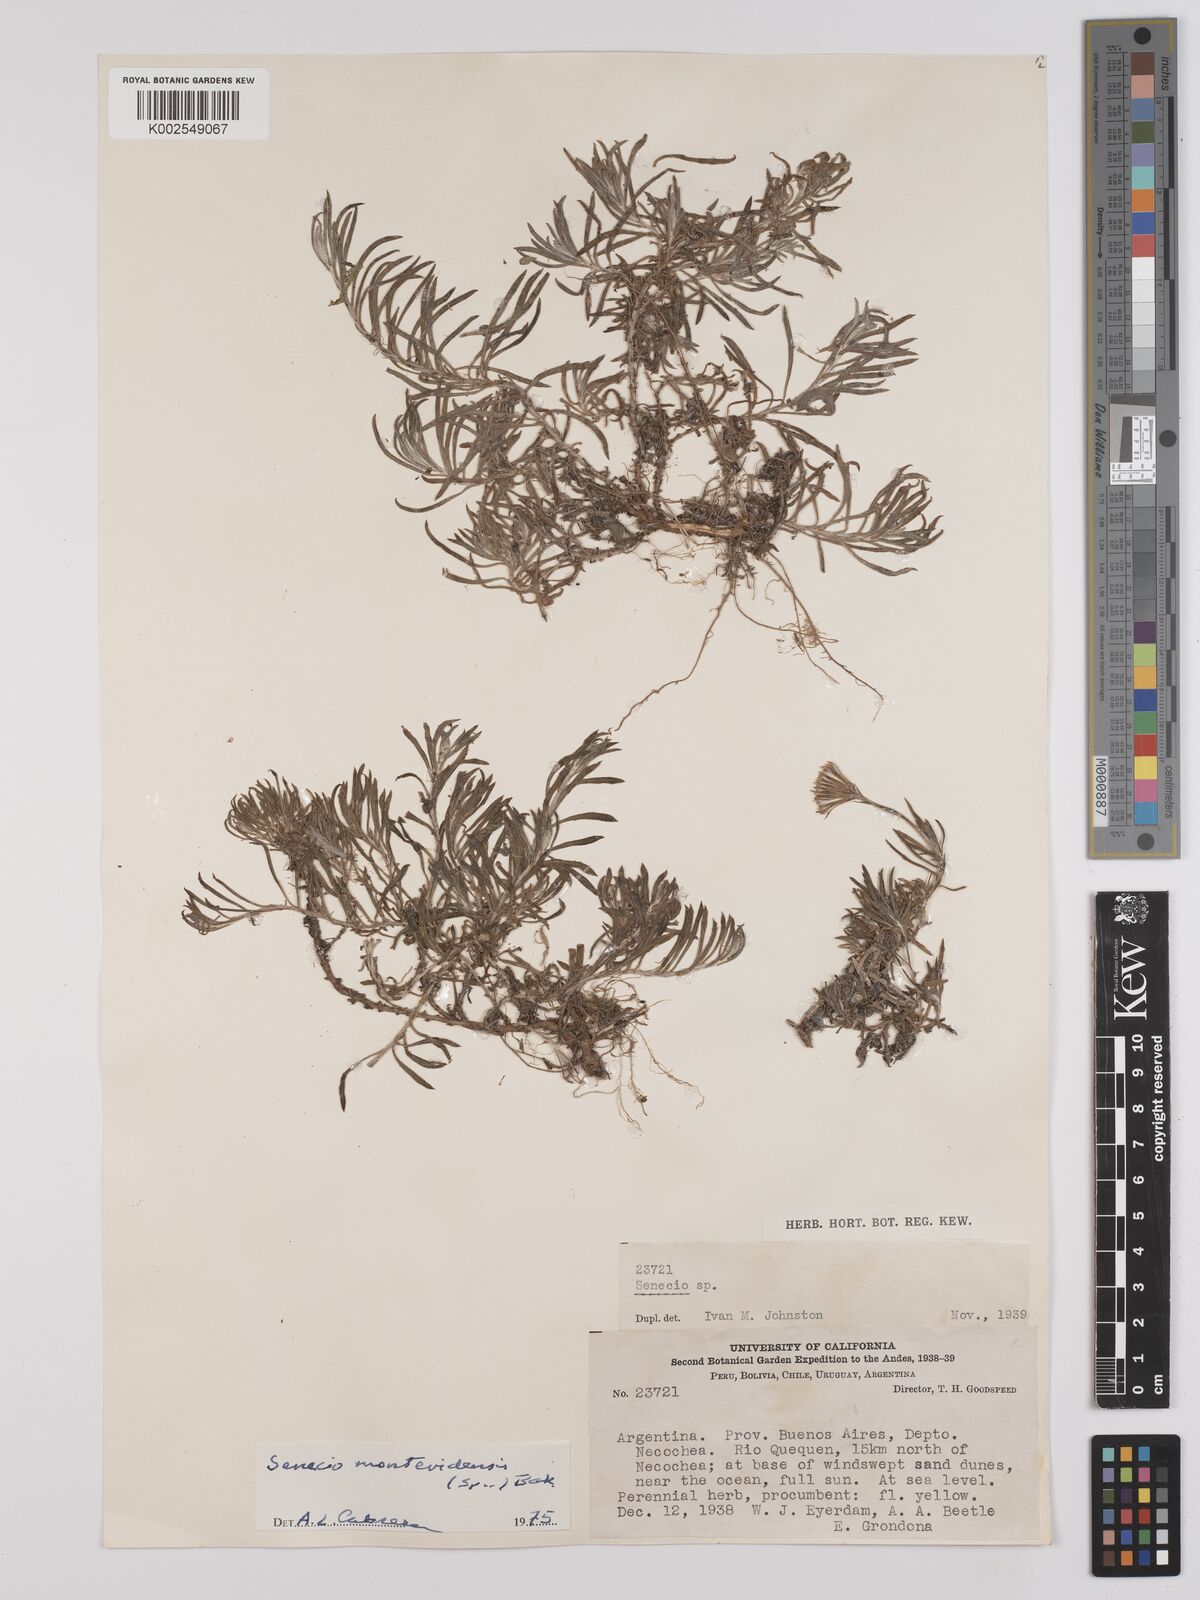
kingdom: Plantae
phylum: Tracheophyta
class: Magnoliopsida
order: Asterales
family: Asteraceae
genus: Senecio
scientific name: Senecio montevidensis
